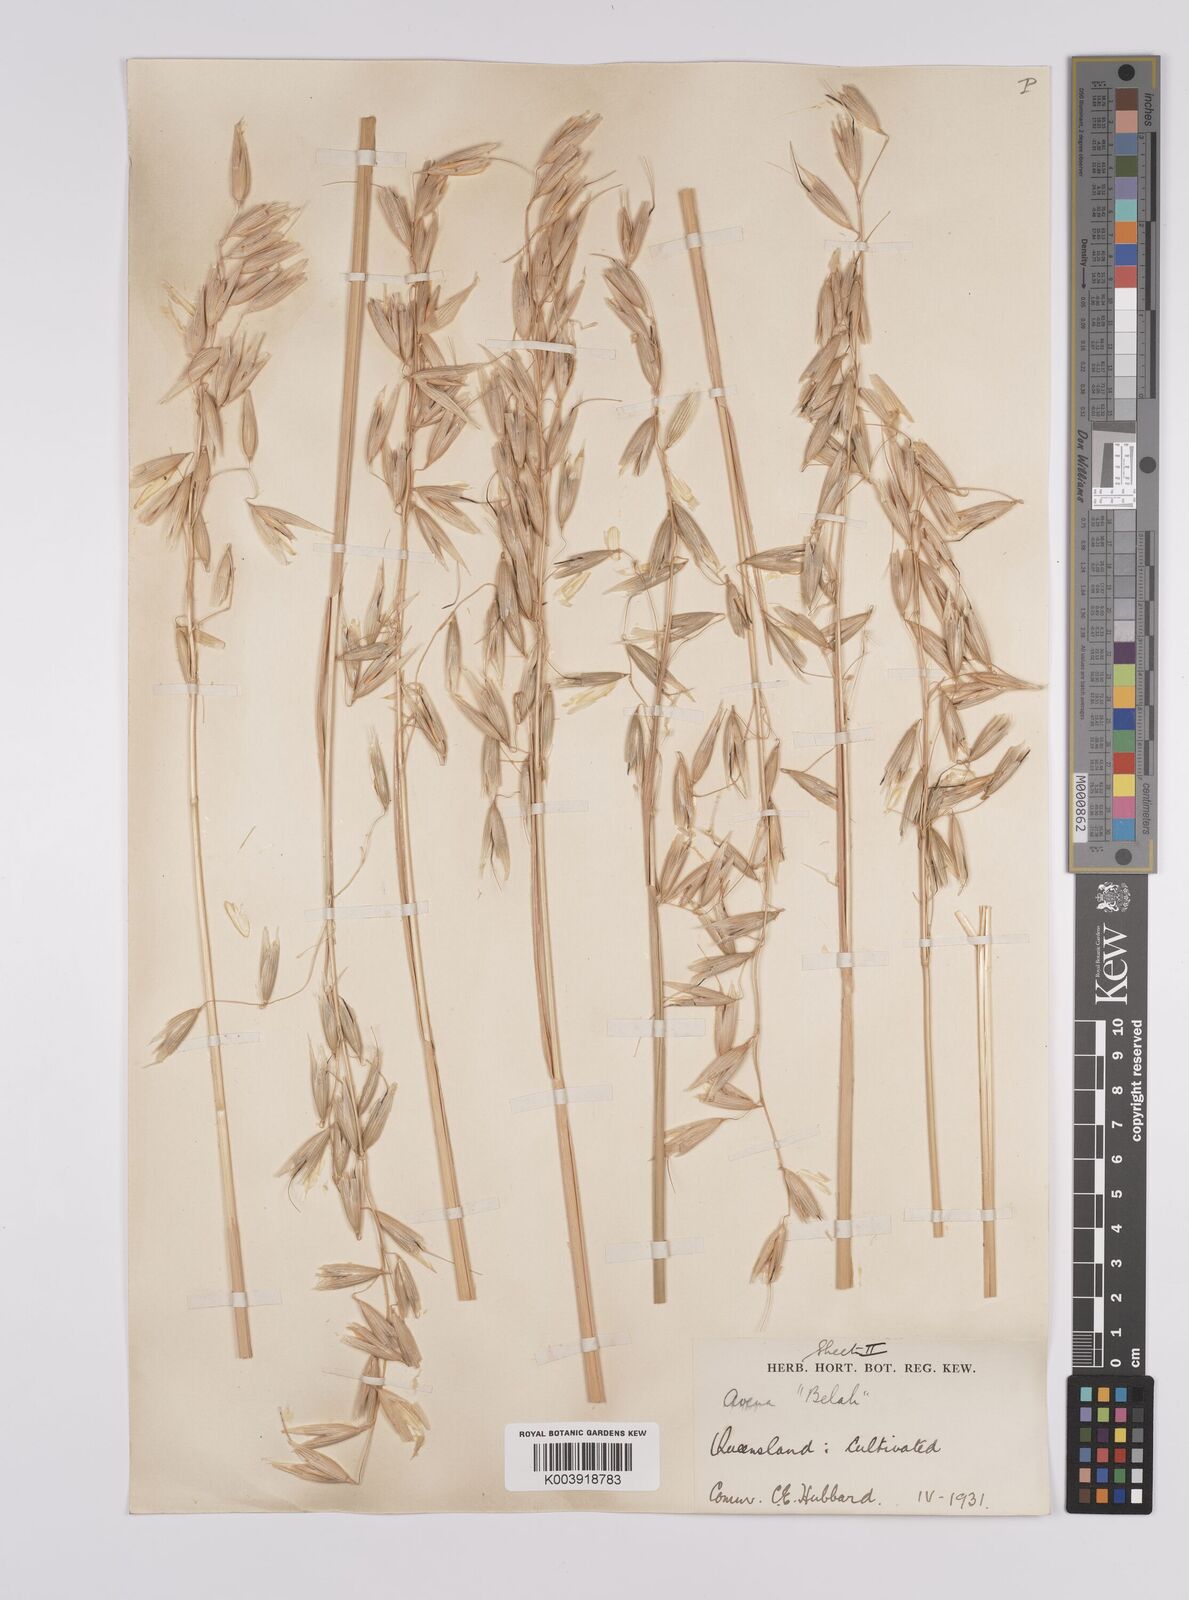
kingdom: Plantae
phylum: Tracheophyta
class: Liliopsida
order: Poales
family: Poaceae
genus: Avena
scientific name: Avena sativa
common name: Oat
